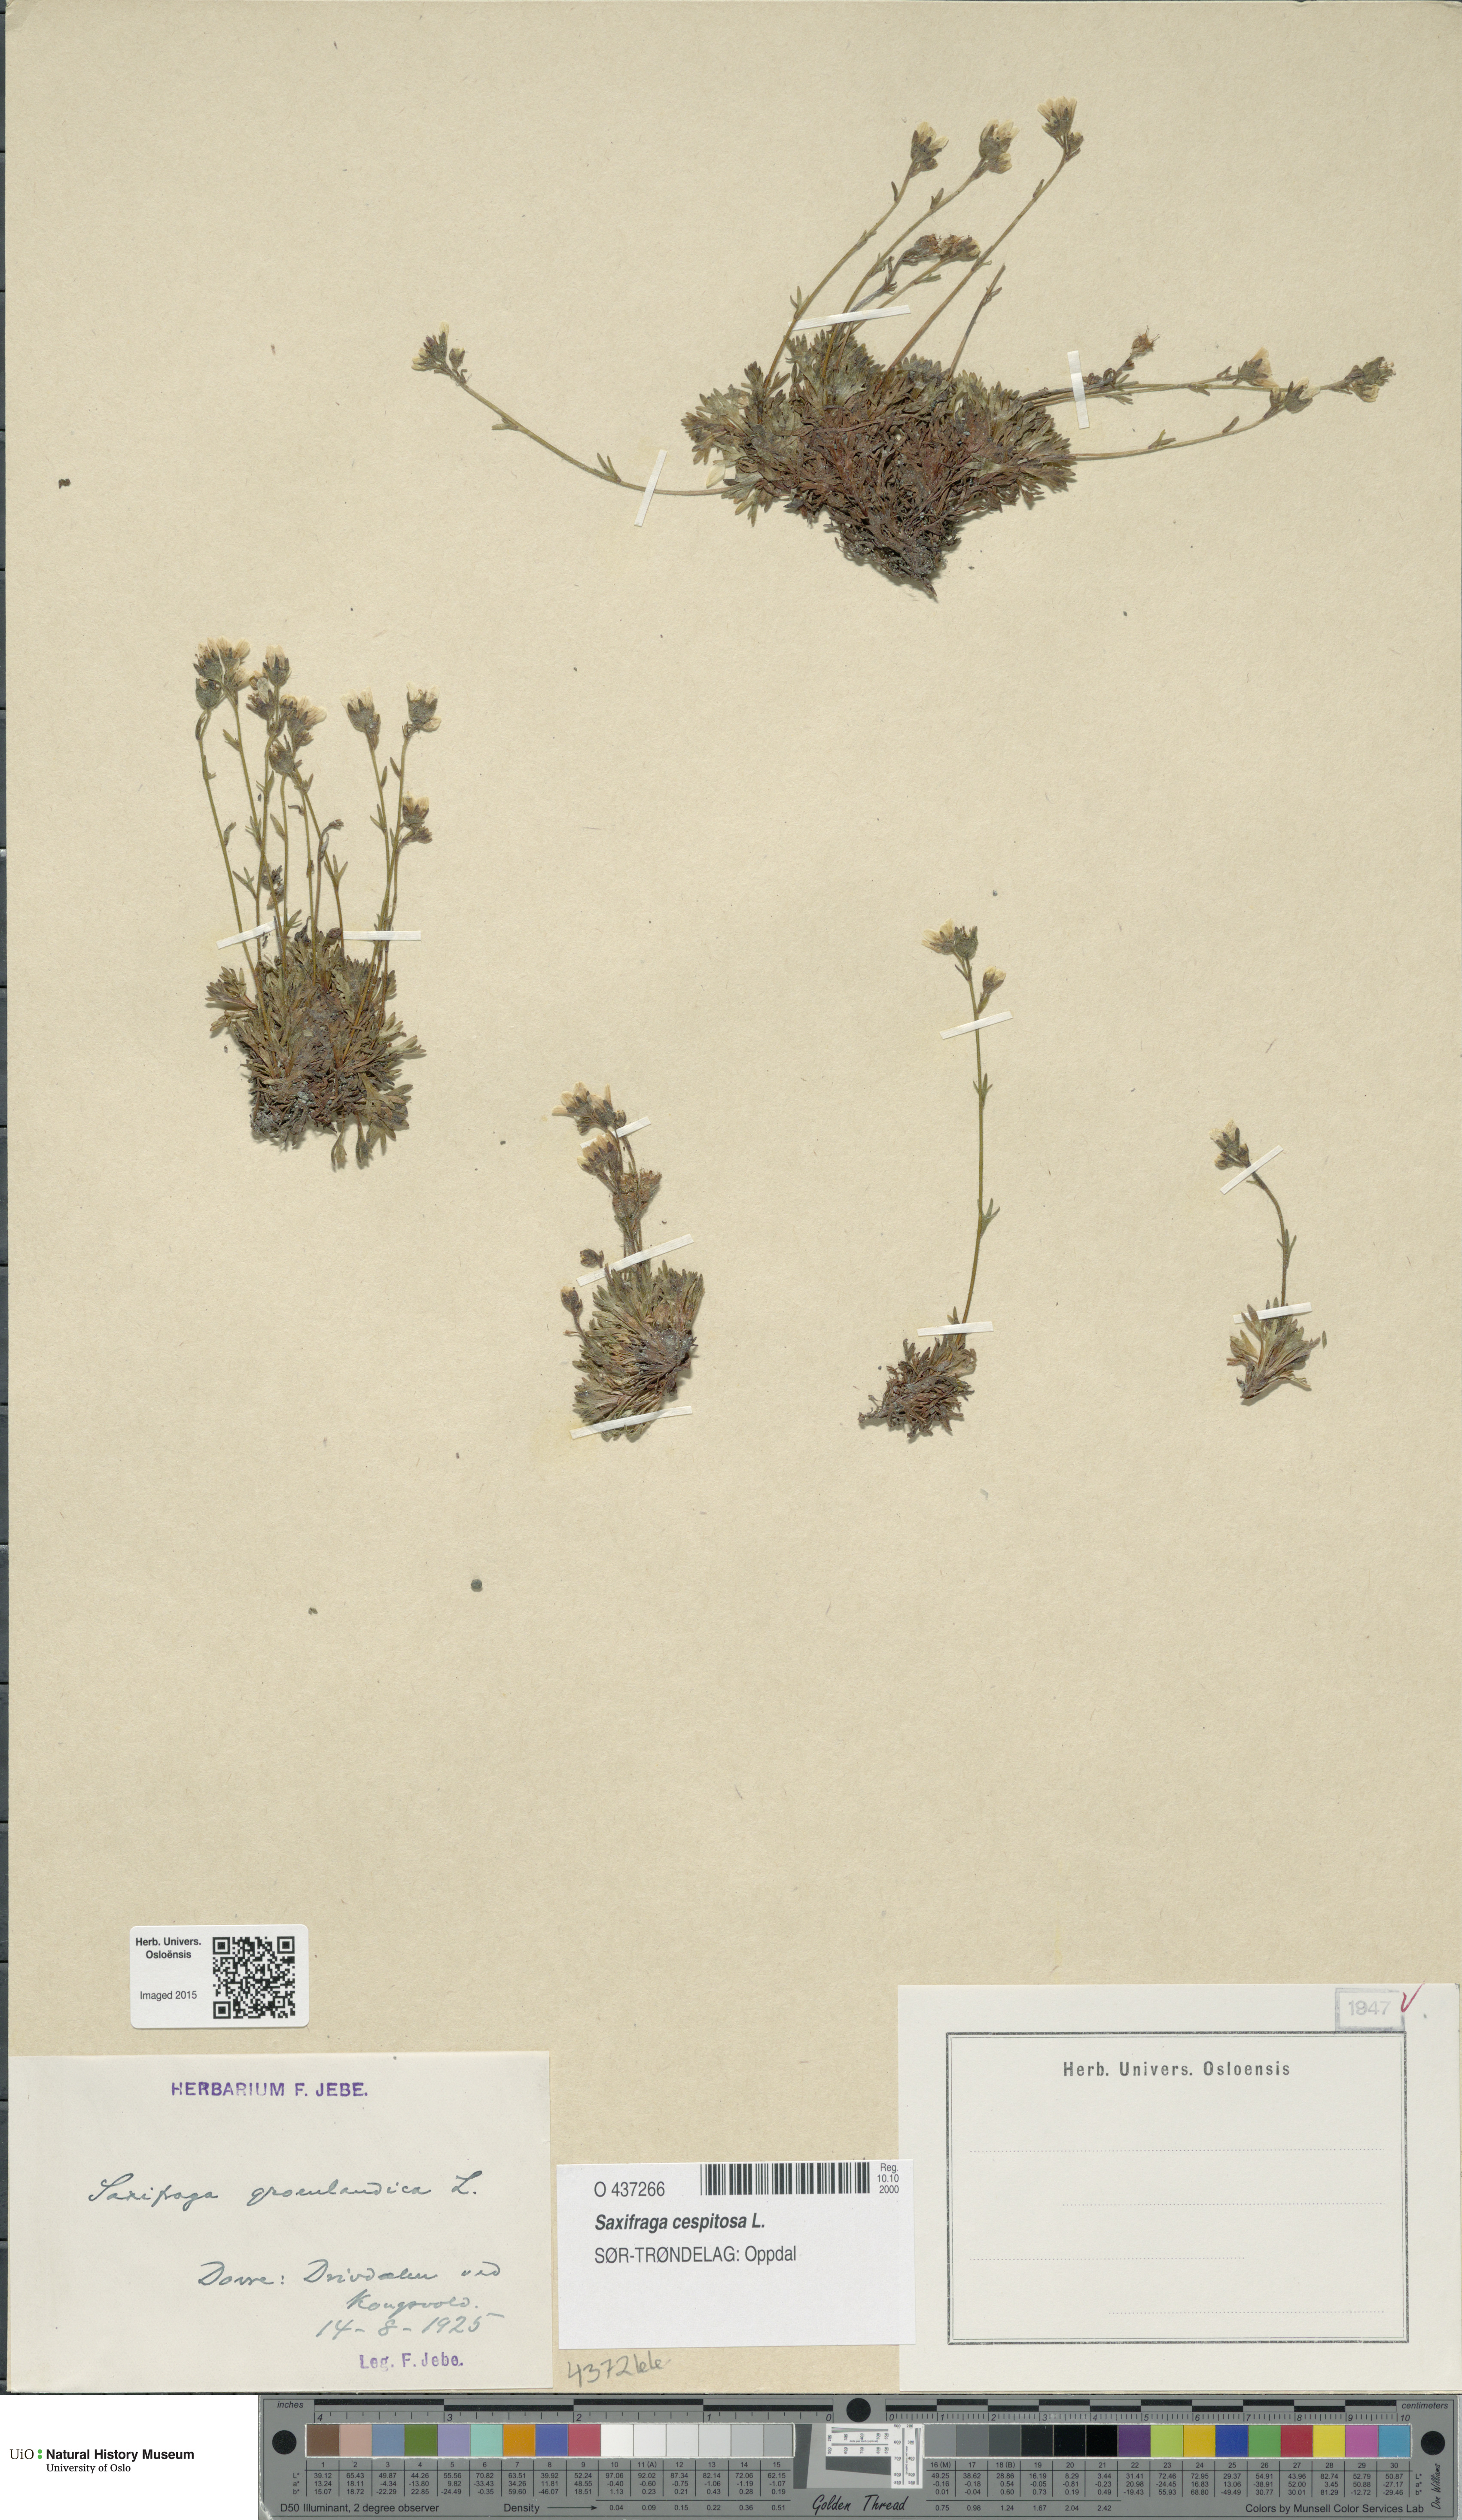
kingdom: Plantae
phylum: Tracheophyta
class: Magnoliopsida
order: Saxifragales
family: Saxifragaceae
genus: Saxifraga
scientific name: Saxifraga cespitosa
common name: Tufted saxifrage
